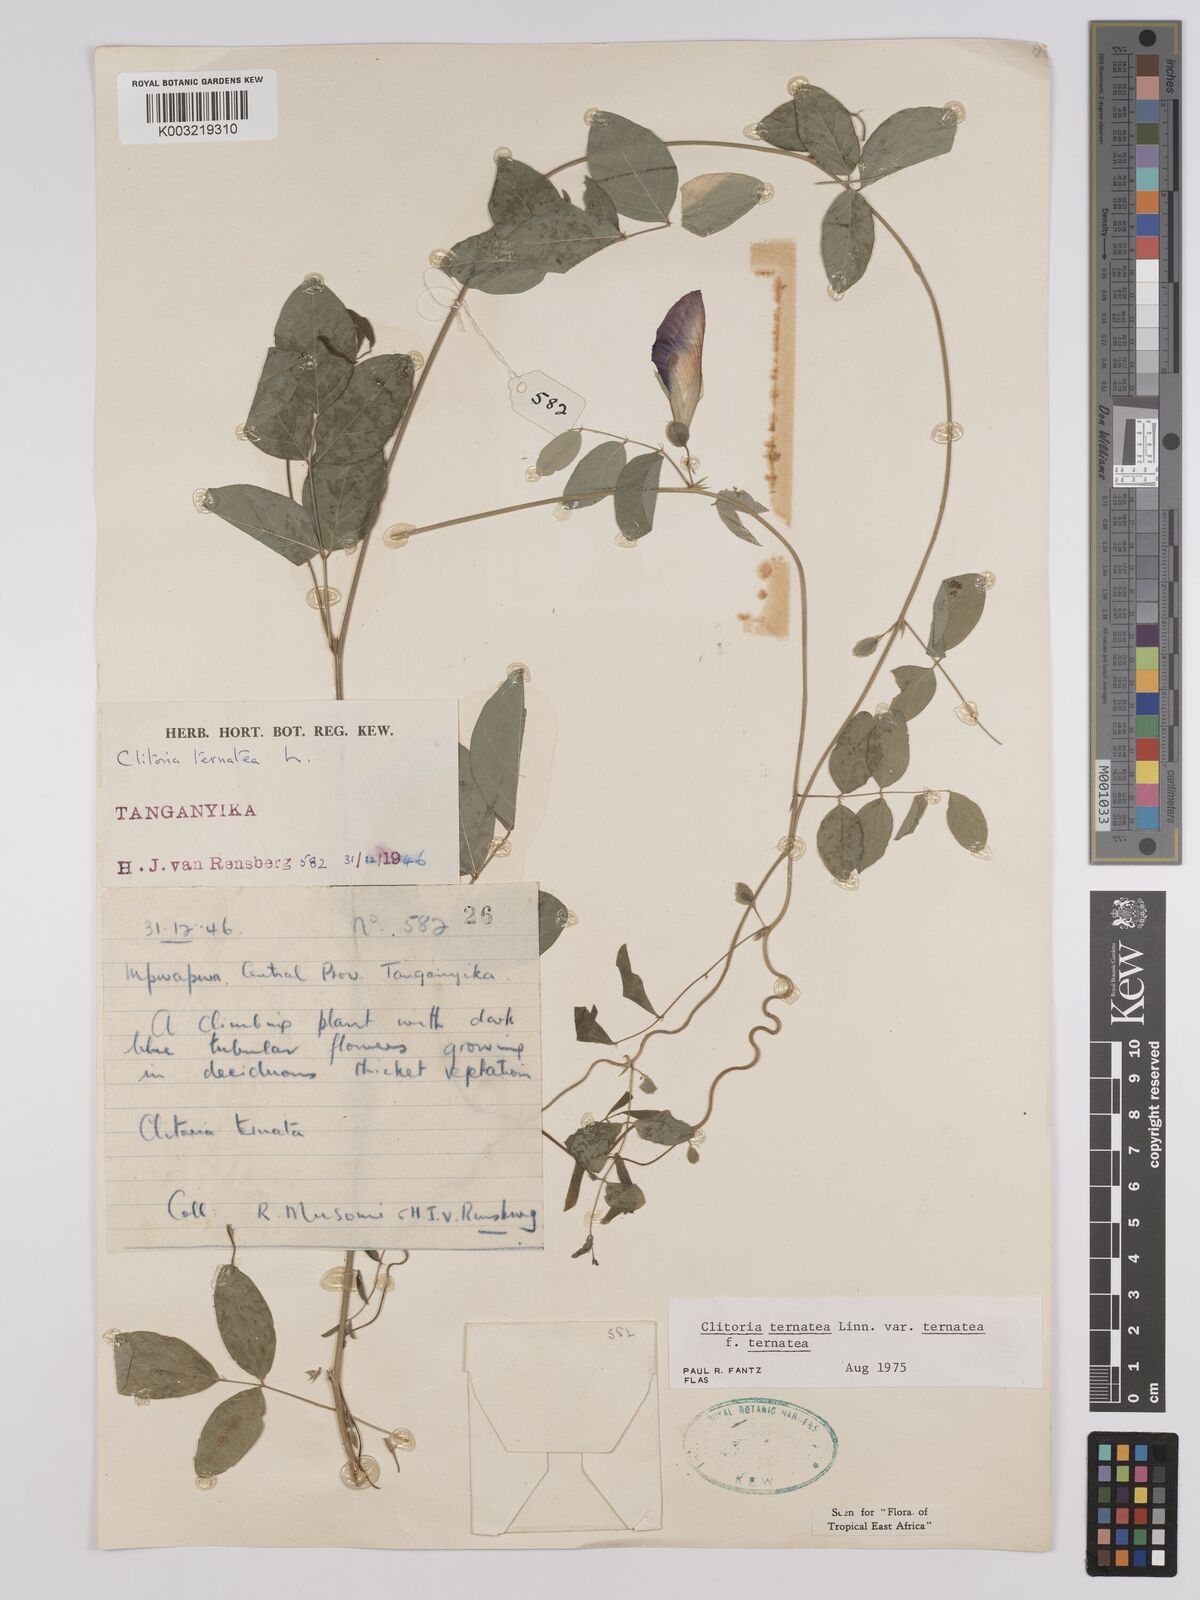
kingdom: Plantae
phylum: Tracheophyta
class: Magnoliopsida
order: Fabales
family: Fabaceae
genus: Clitoria
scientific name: Clitoria ternatea
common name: Asian pigeonwings
